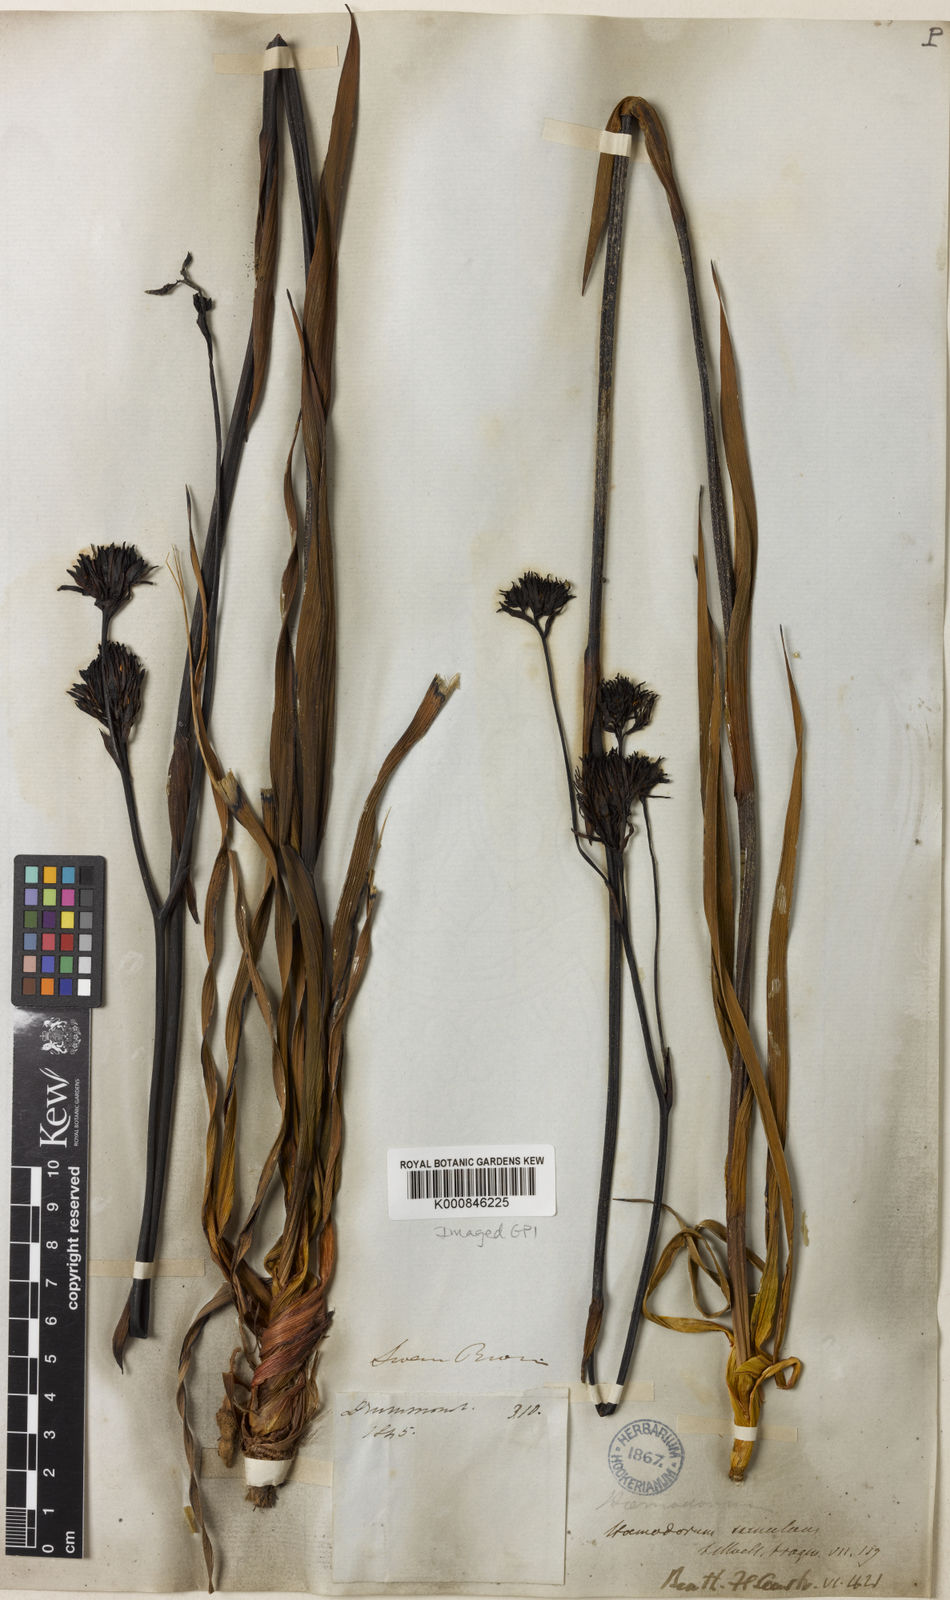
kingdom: Plantae
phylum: Tracheophyta
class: Liliopsida
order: Commelinales
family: Haemodoraceae
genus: Haemodorum
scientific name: Haemodorum simulans
